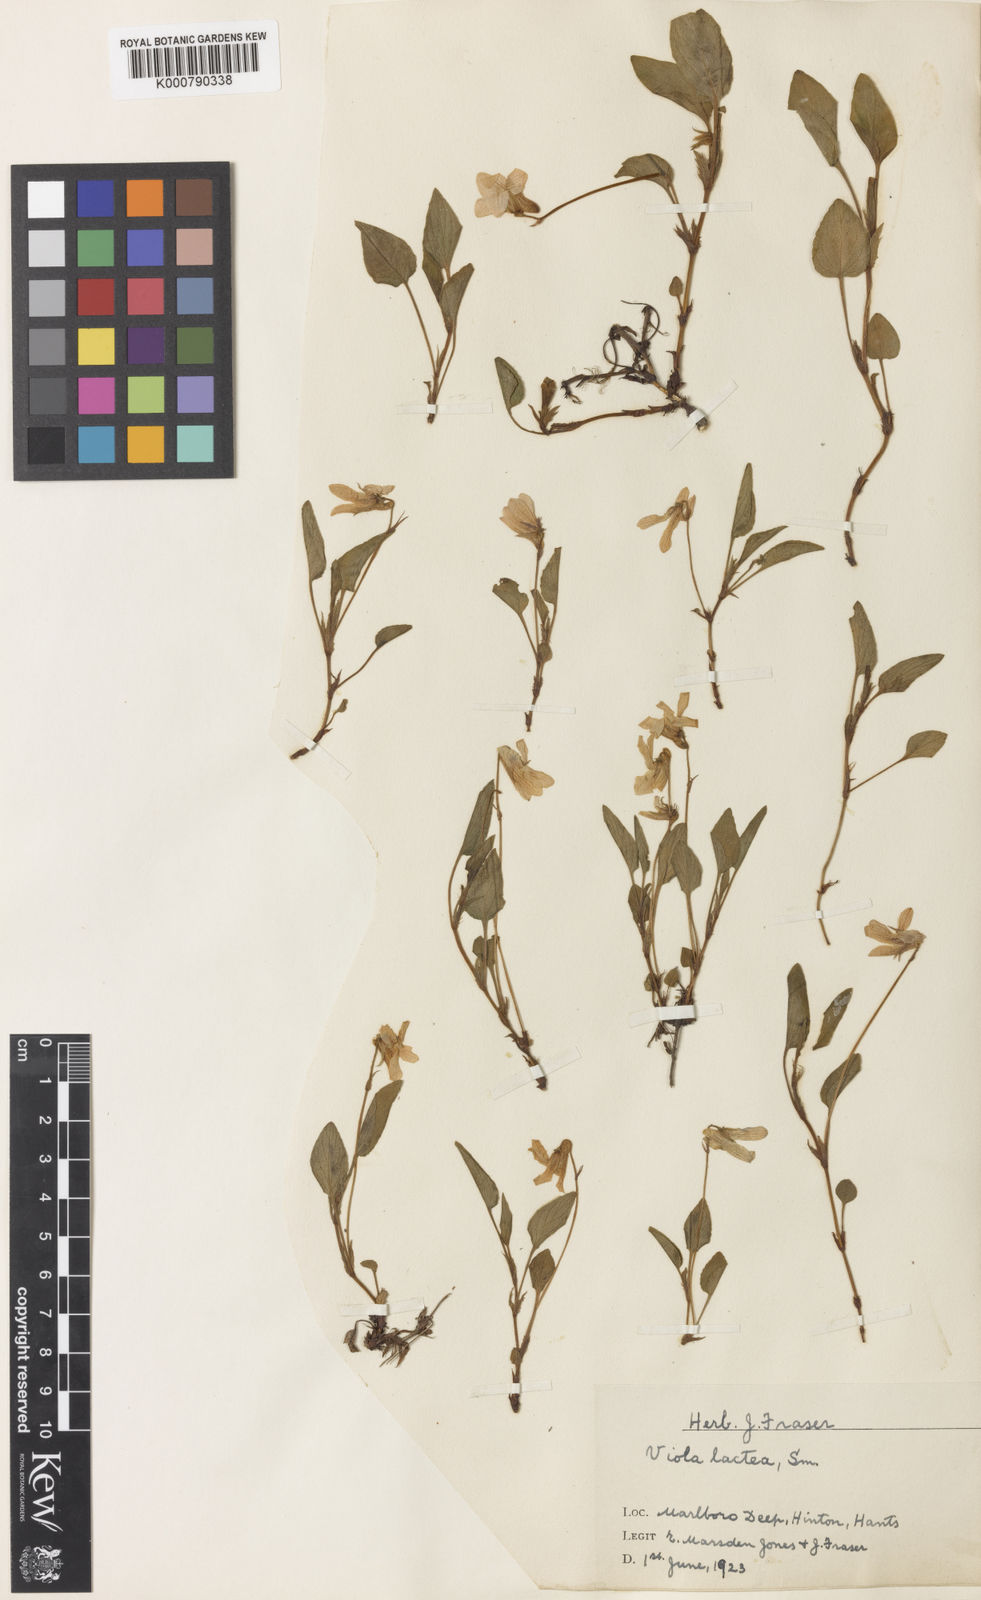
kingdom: Plantae
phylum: Tracheophyta
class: Magnoliopsida
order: Malpighiales
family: Violaceae
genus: Viola
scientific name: Viola lactea
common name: Pale dog-violet
